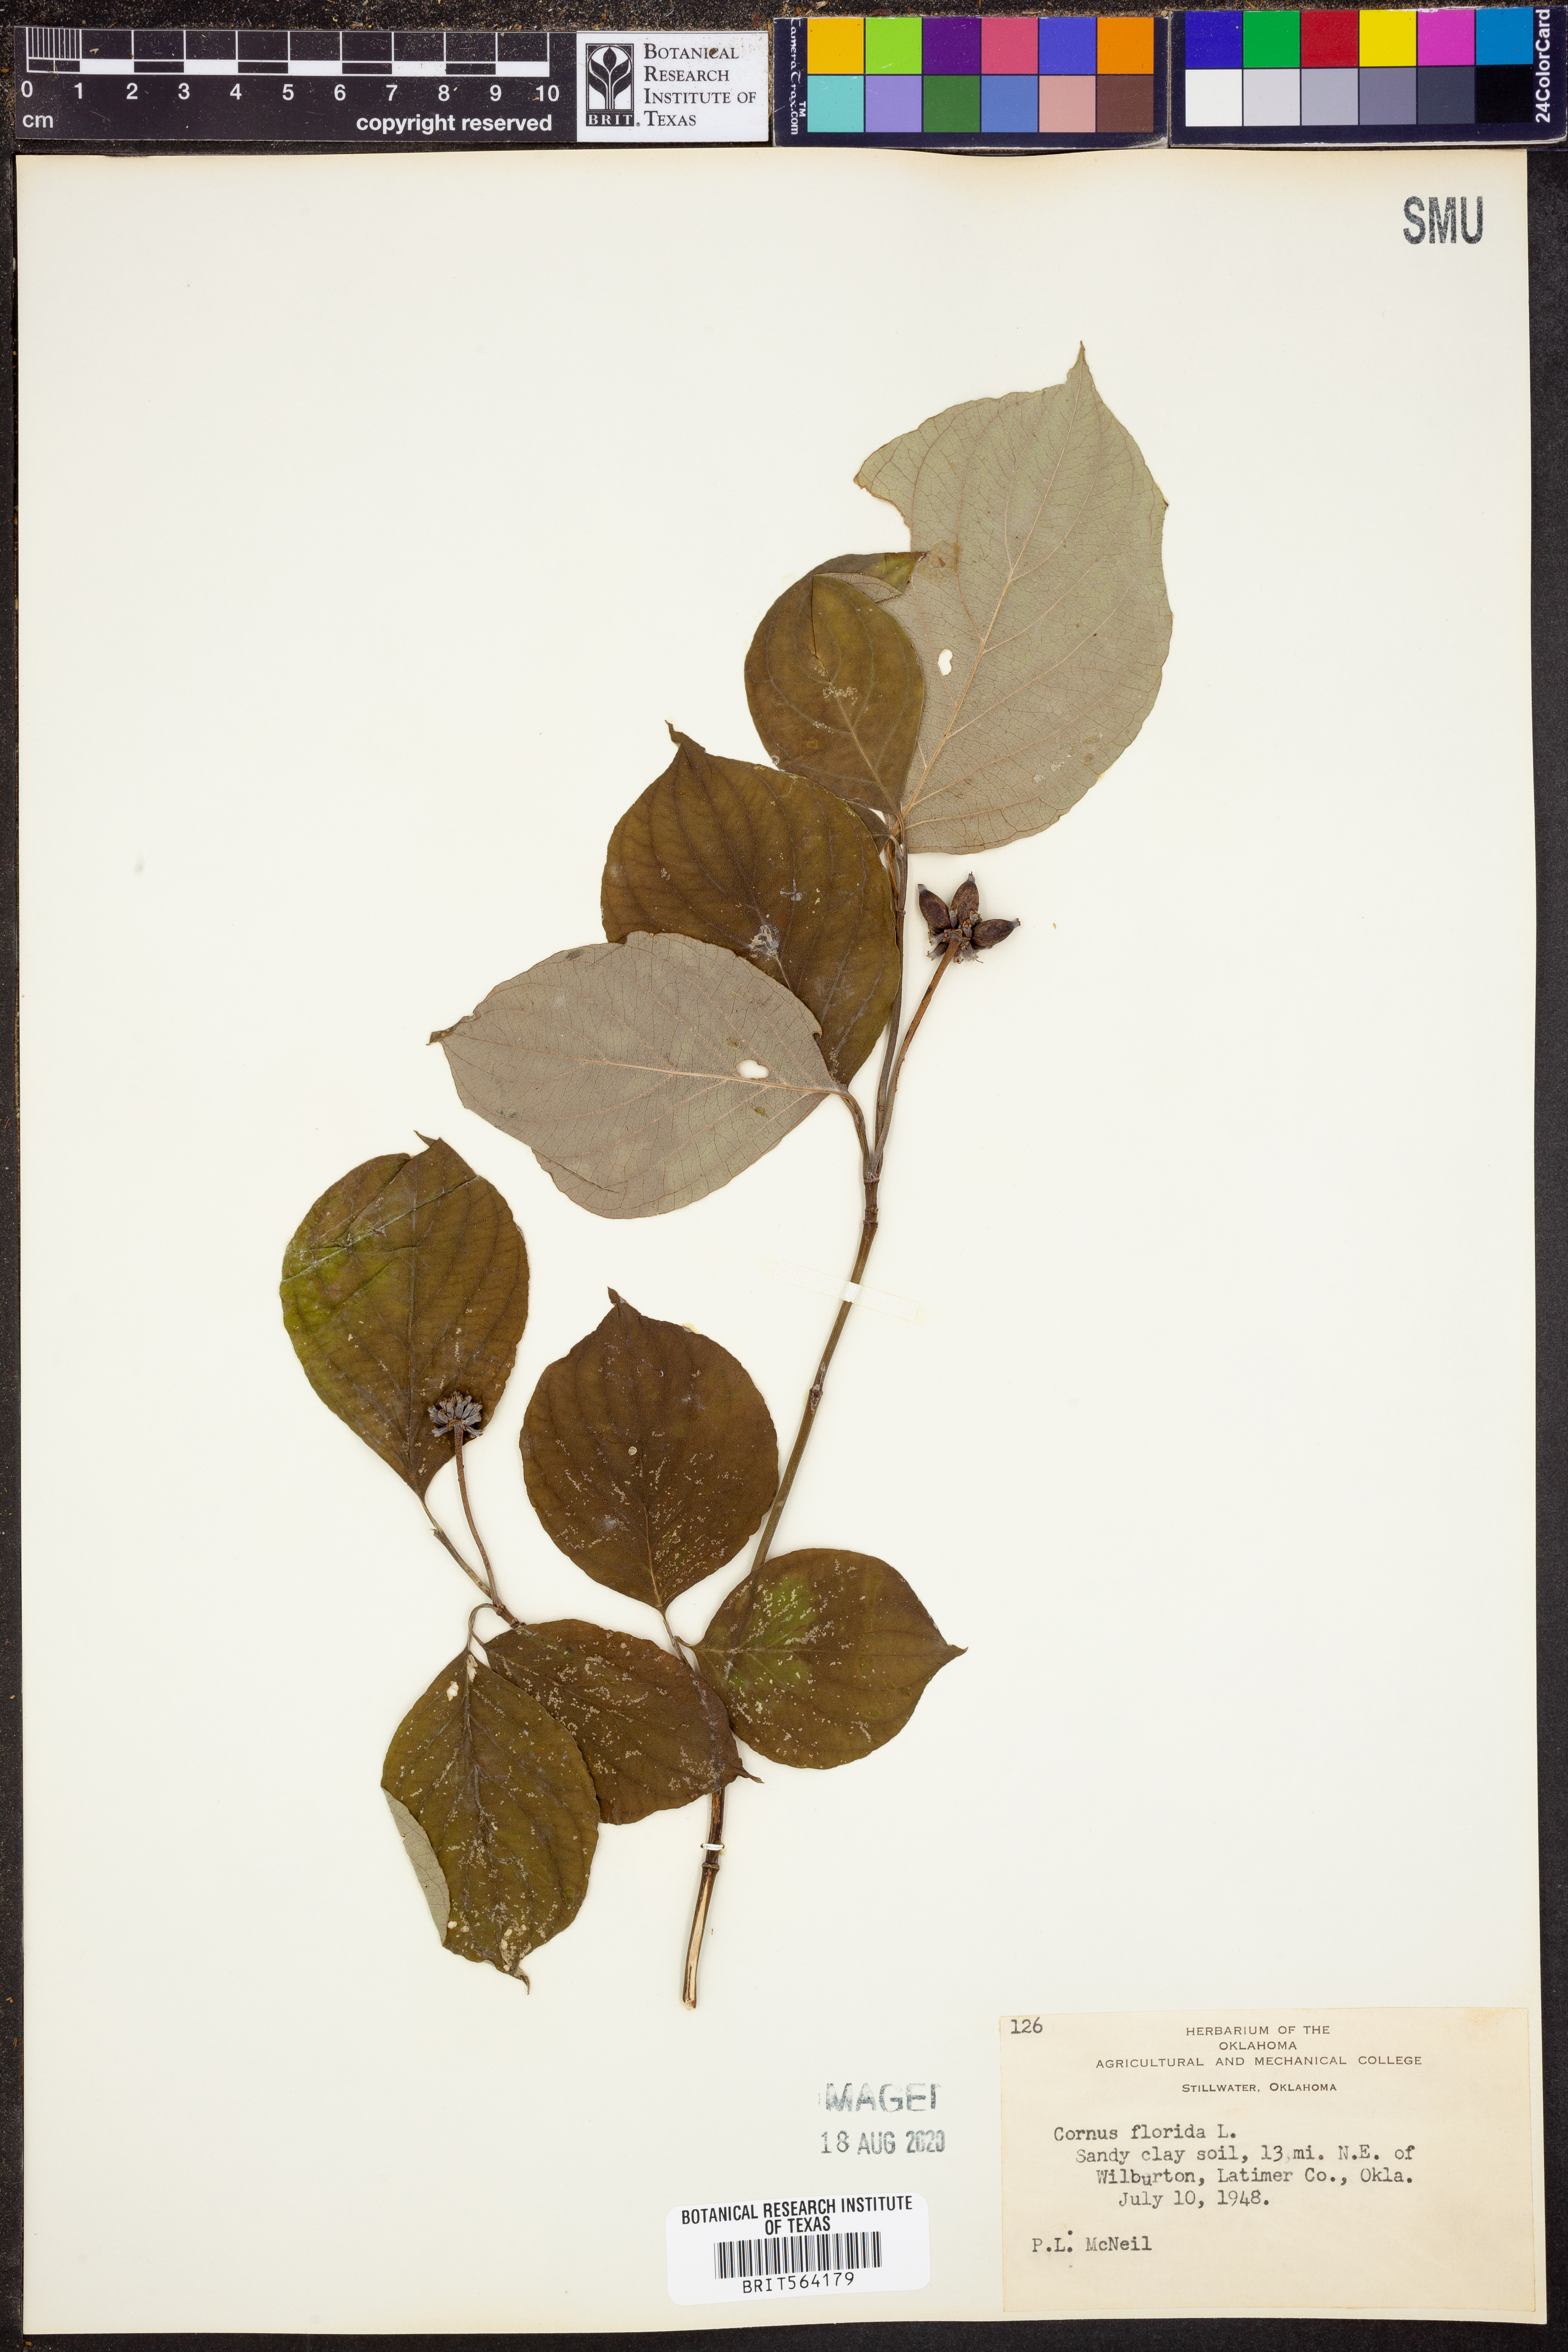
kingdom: Plantae
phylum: Tracheophyta
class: Magnoliopsida
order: Cornales
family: Cornaceae
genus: Cornus
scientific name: Cornus florida
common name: Flowering dogwood
